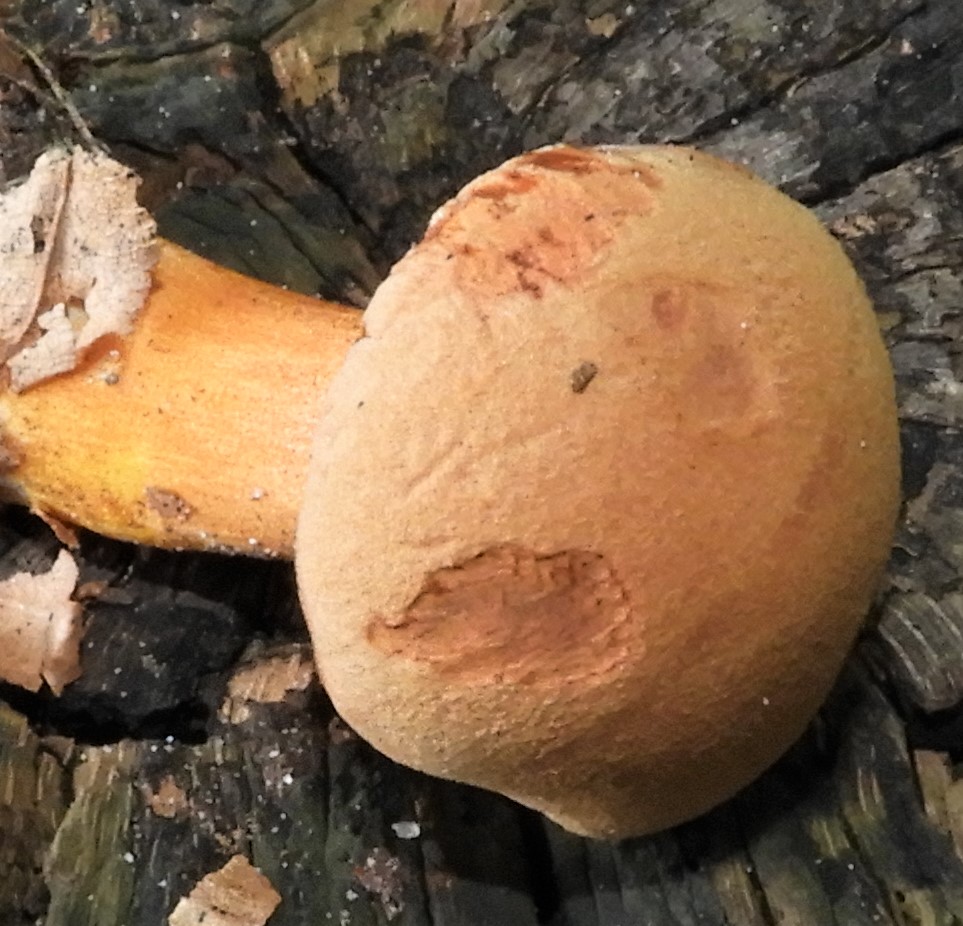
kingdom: Fungi
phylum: Basidiomycota
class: Agaricomycetes
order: Boletales
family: Boletaceae
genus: Chalciporus
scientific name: Chalciporus piperatus
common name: peberrørhat
